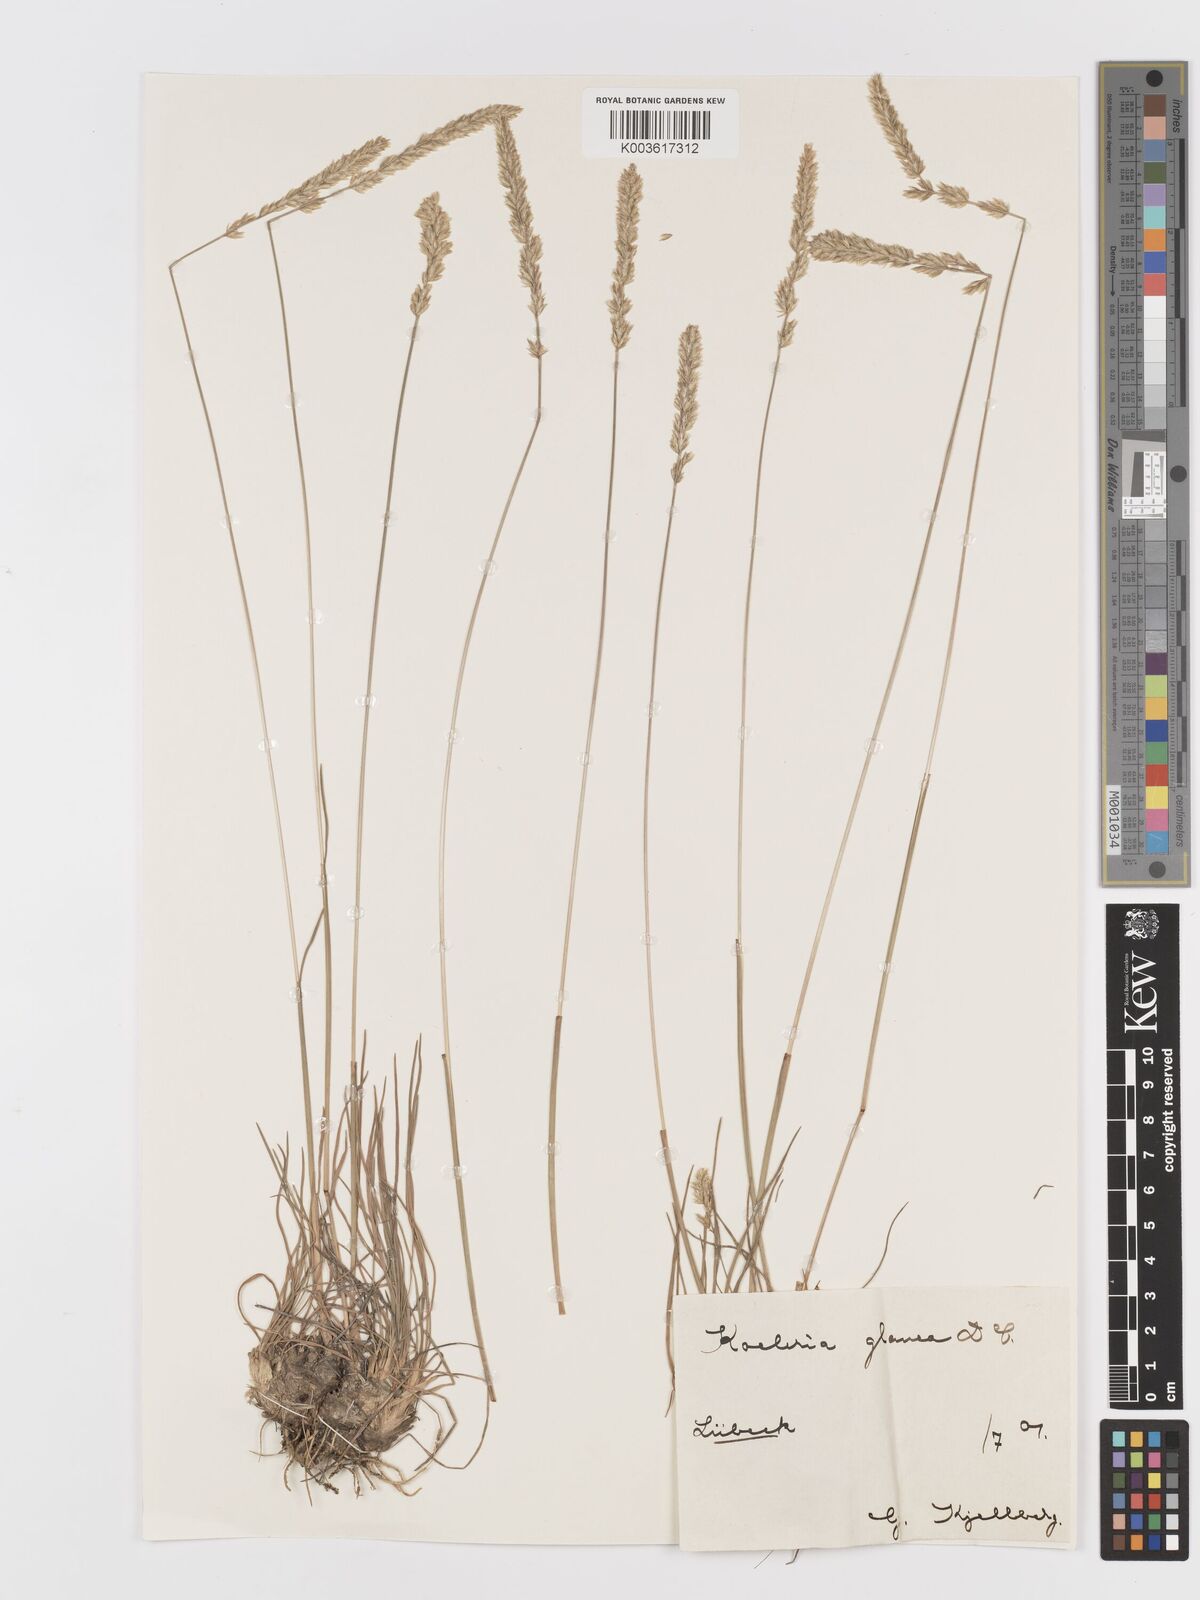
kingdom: Plantae
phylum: Tracheophyta
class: Liliopsida
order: Poales
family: Poaceae
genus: Koeleria
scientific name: Koeleria glauca
